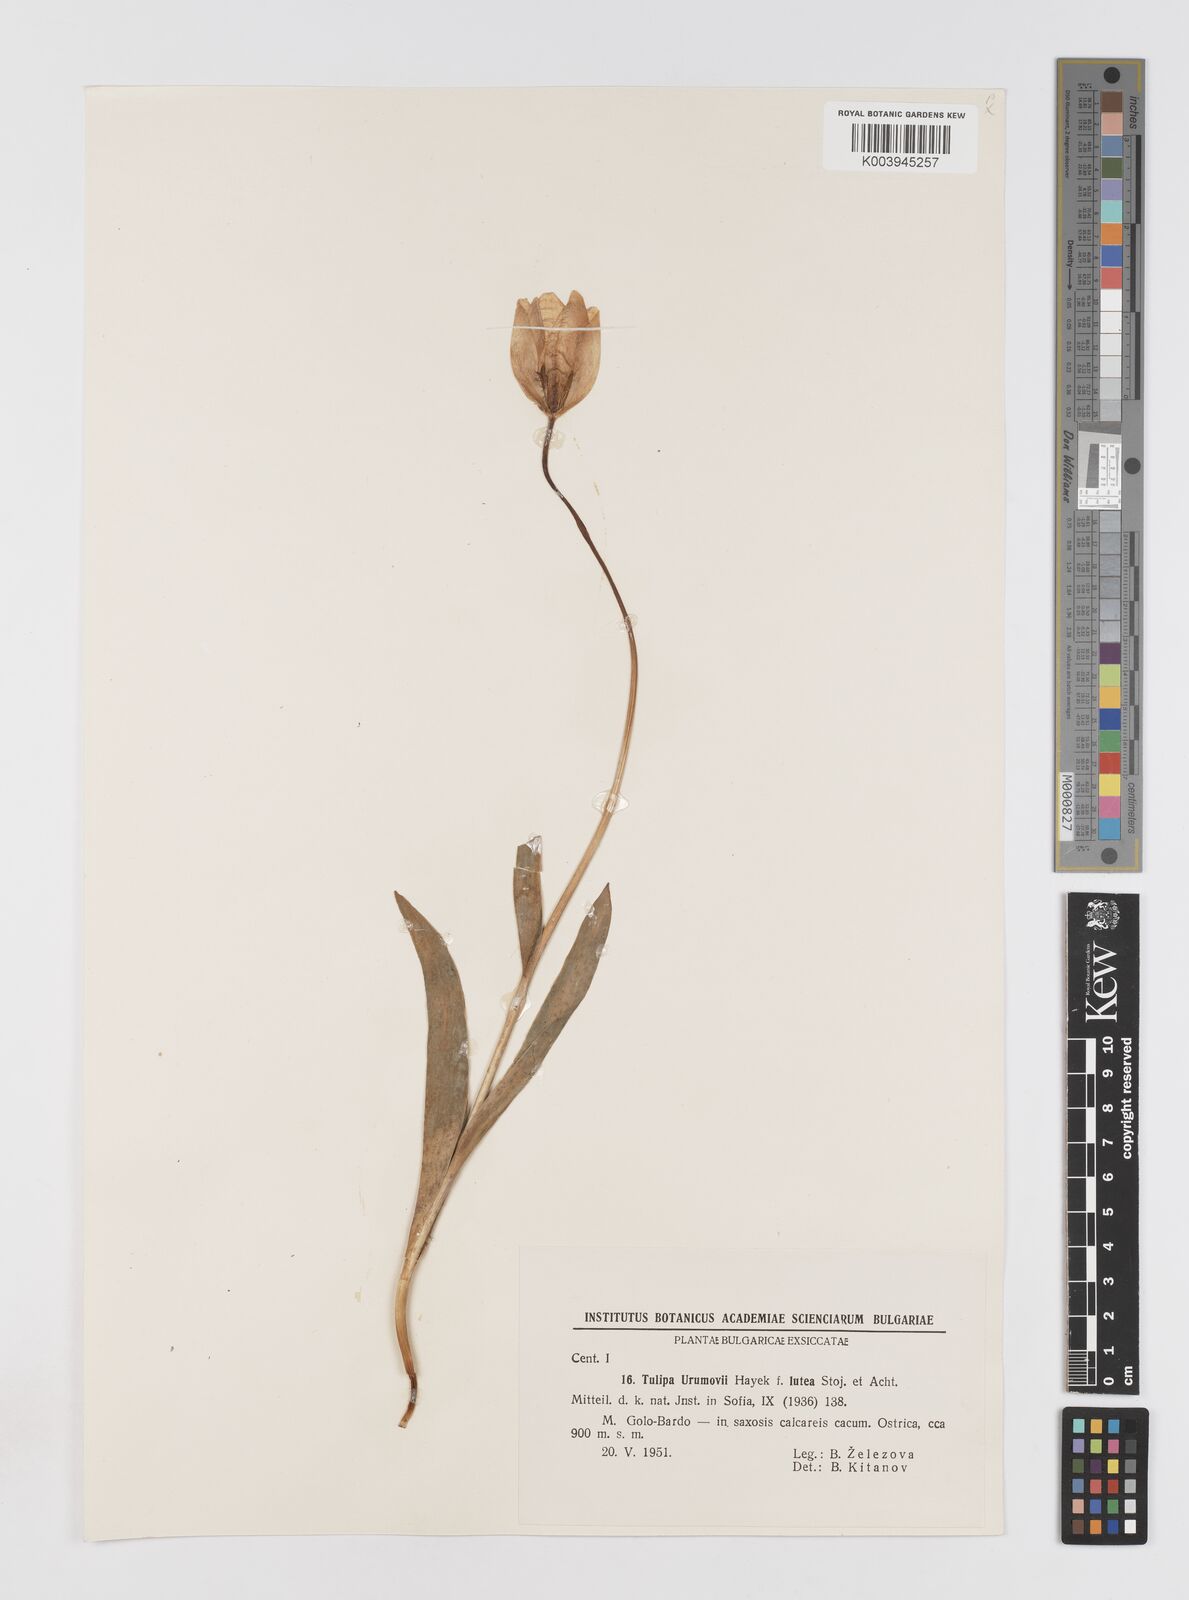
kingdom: Plantae
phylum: Tracheophyta
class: Liliopsida
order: Liliales
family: Liliaceae
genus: Tulipa
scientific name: Tulipa hungarica
